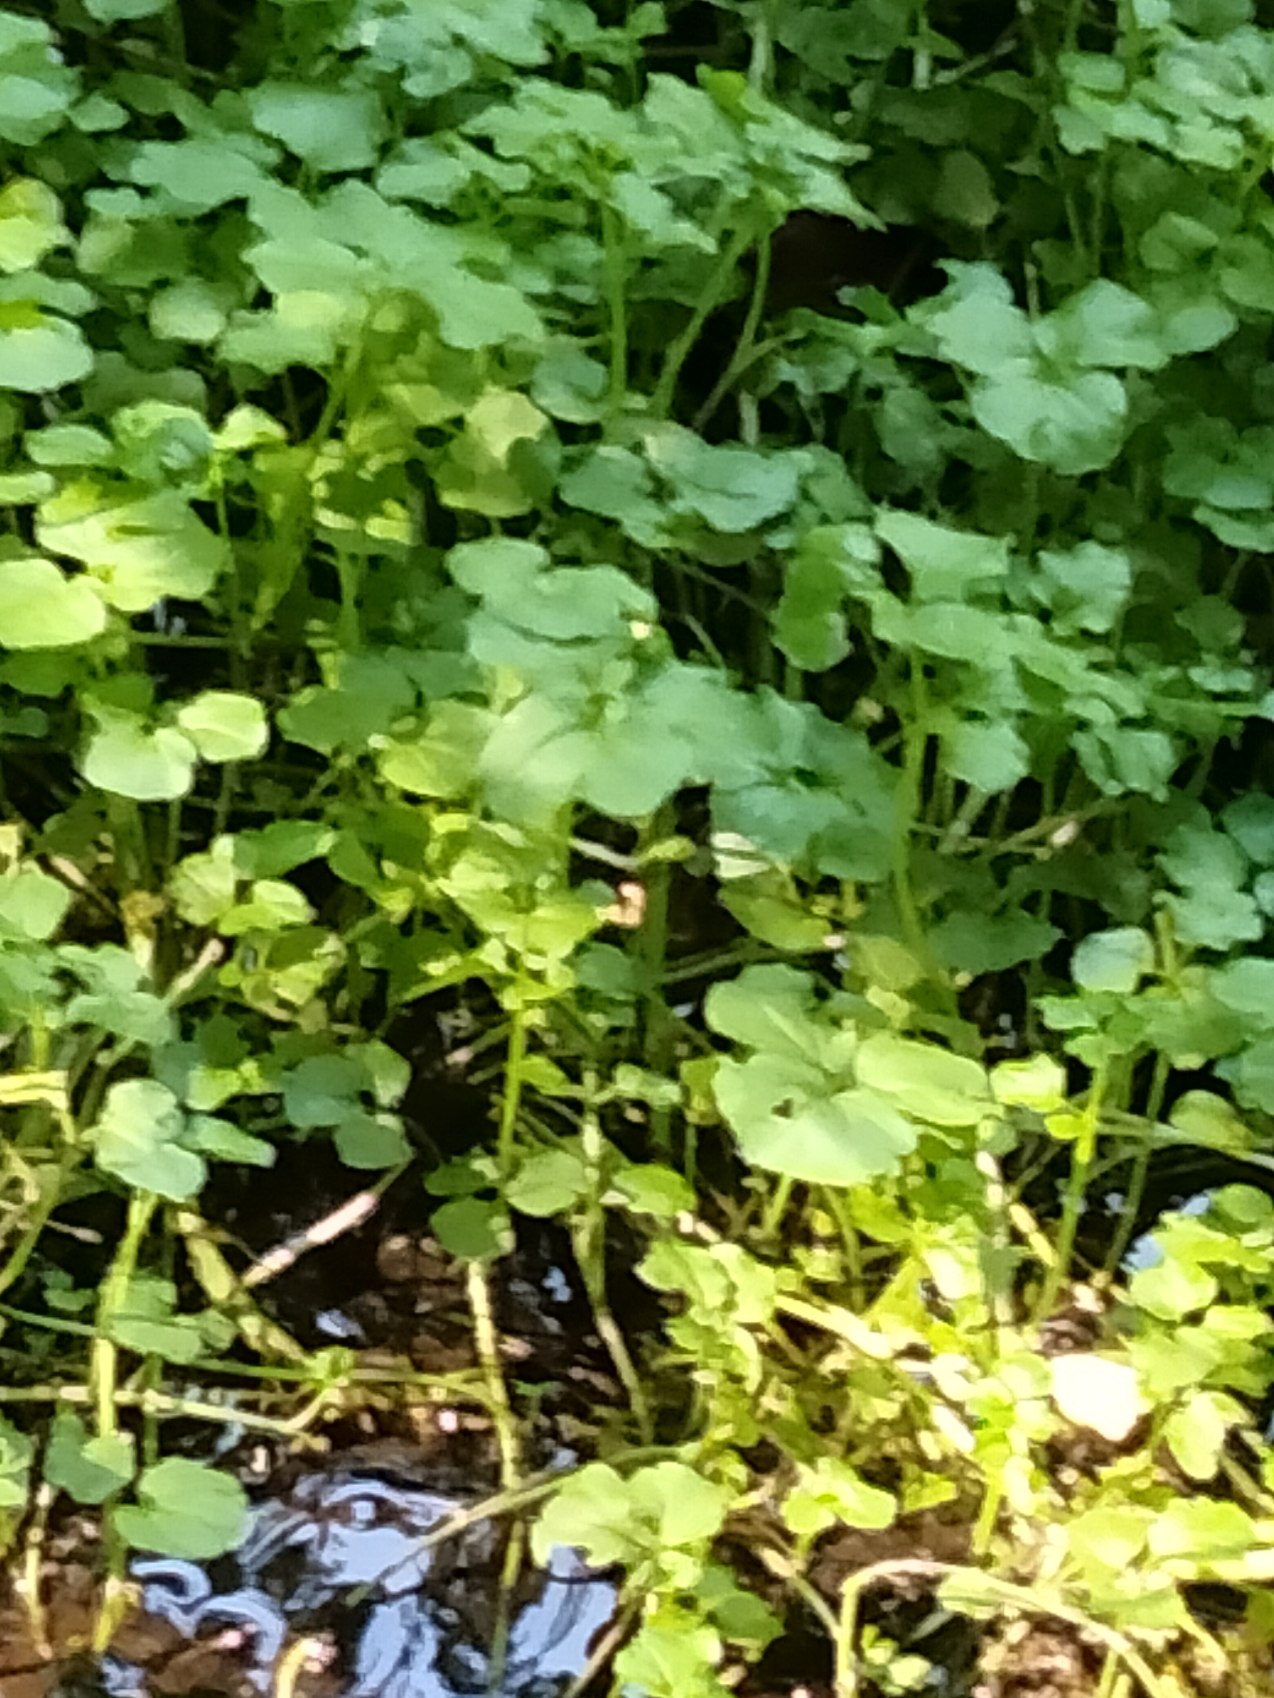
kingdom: Plantae
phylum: Tracheophyta
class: Magnoliopsida
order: Brassicales
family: Brassicaceae
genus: Cardamine
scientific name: Cardamine amara
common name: Vandkarse
